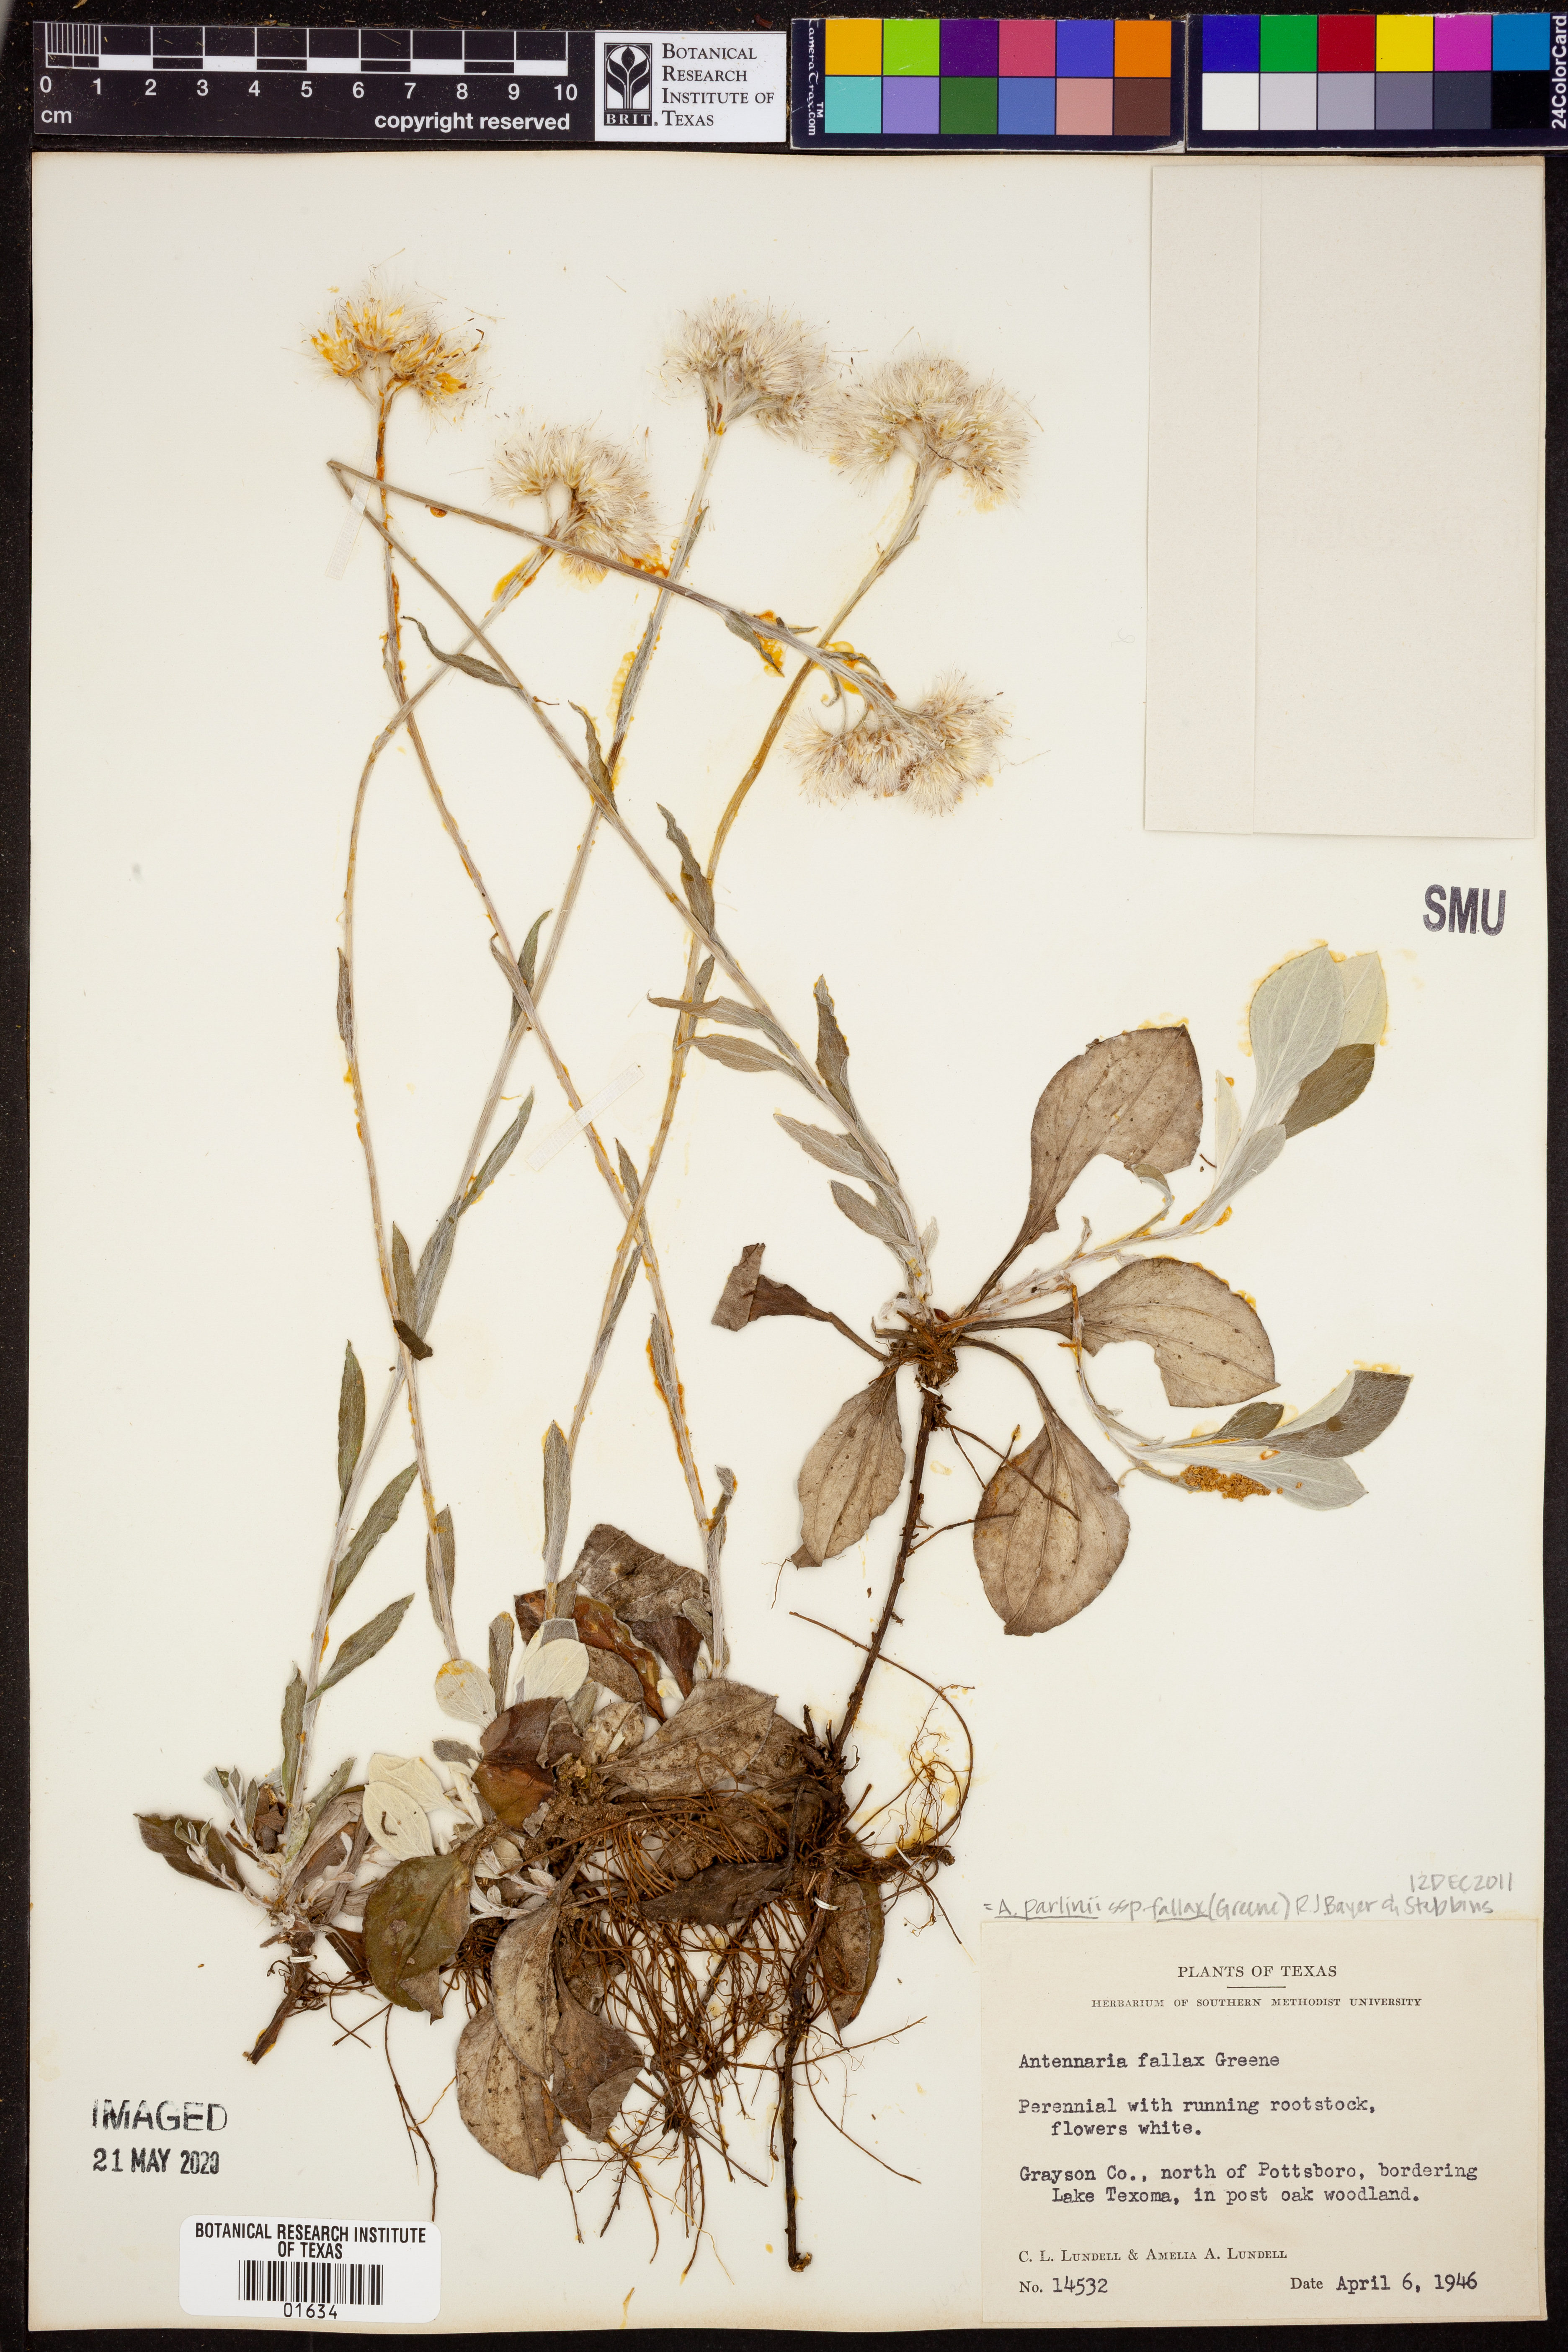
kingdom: Plantae
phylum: Tracheophyta
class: Magnoliopsida
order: Asterales
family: Asteraceae
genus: Antennaria
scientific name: Antennaria parlinii
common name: Parlin's pussytoes
